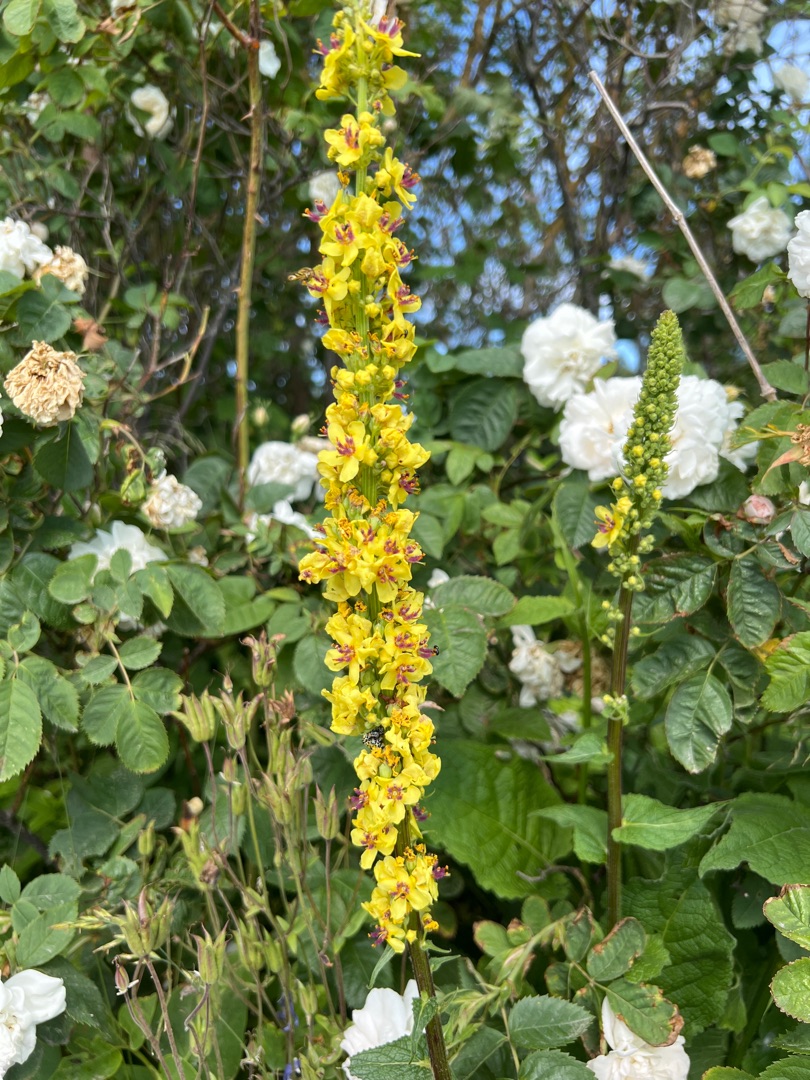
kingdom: Plantae
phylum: Tracheophyta
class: Magnoliopsida
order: Lamiales
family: Scrophulariaceae
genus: Verbascum
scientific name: Verbascum nigrum
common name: Mørk kongelys
